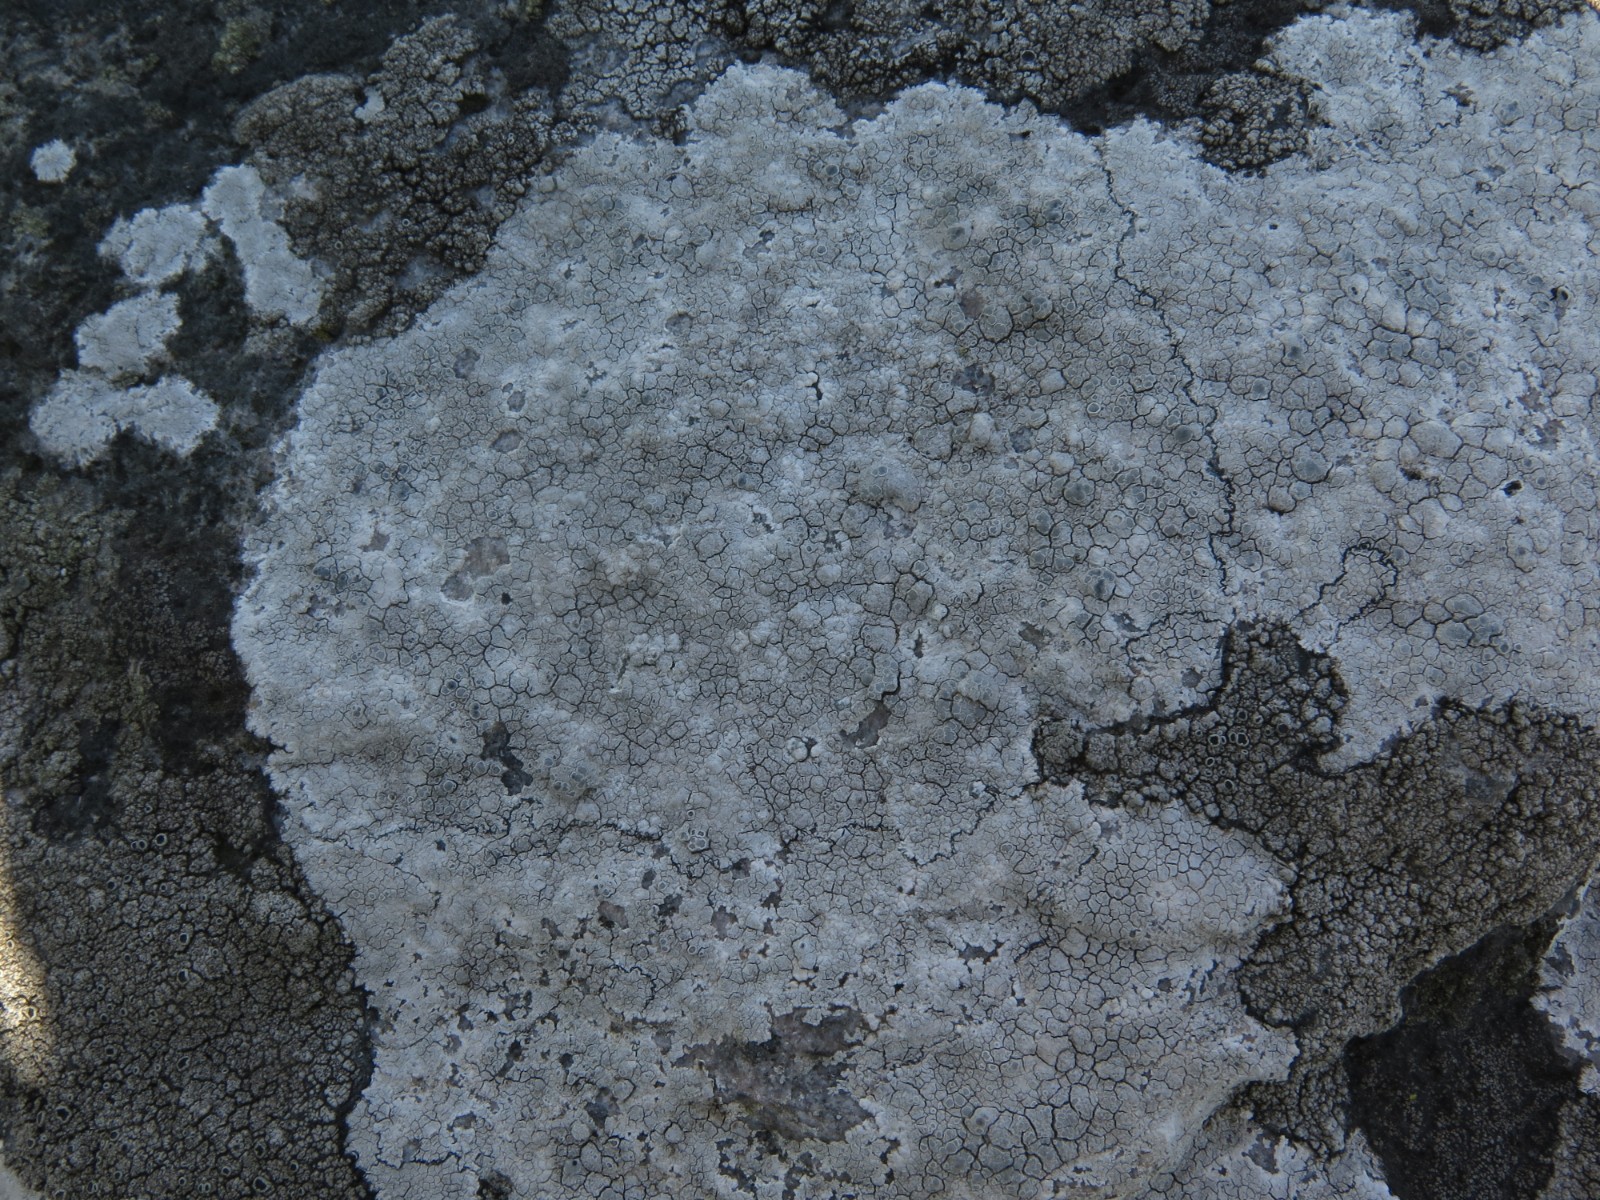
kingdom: Fungi
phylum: Ascomycota
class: Lecanoromycetes
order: Lecanorales
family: Lecanoraceae
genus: Glaucomaria
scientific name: Glaucomaria rupicola
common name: stengærde-kantskivelav
